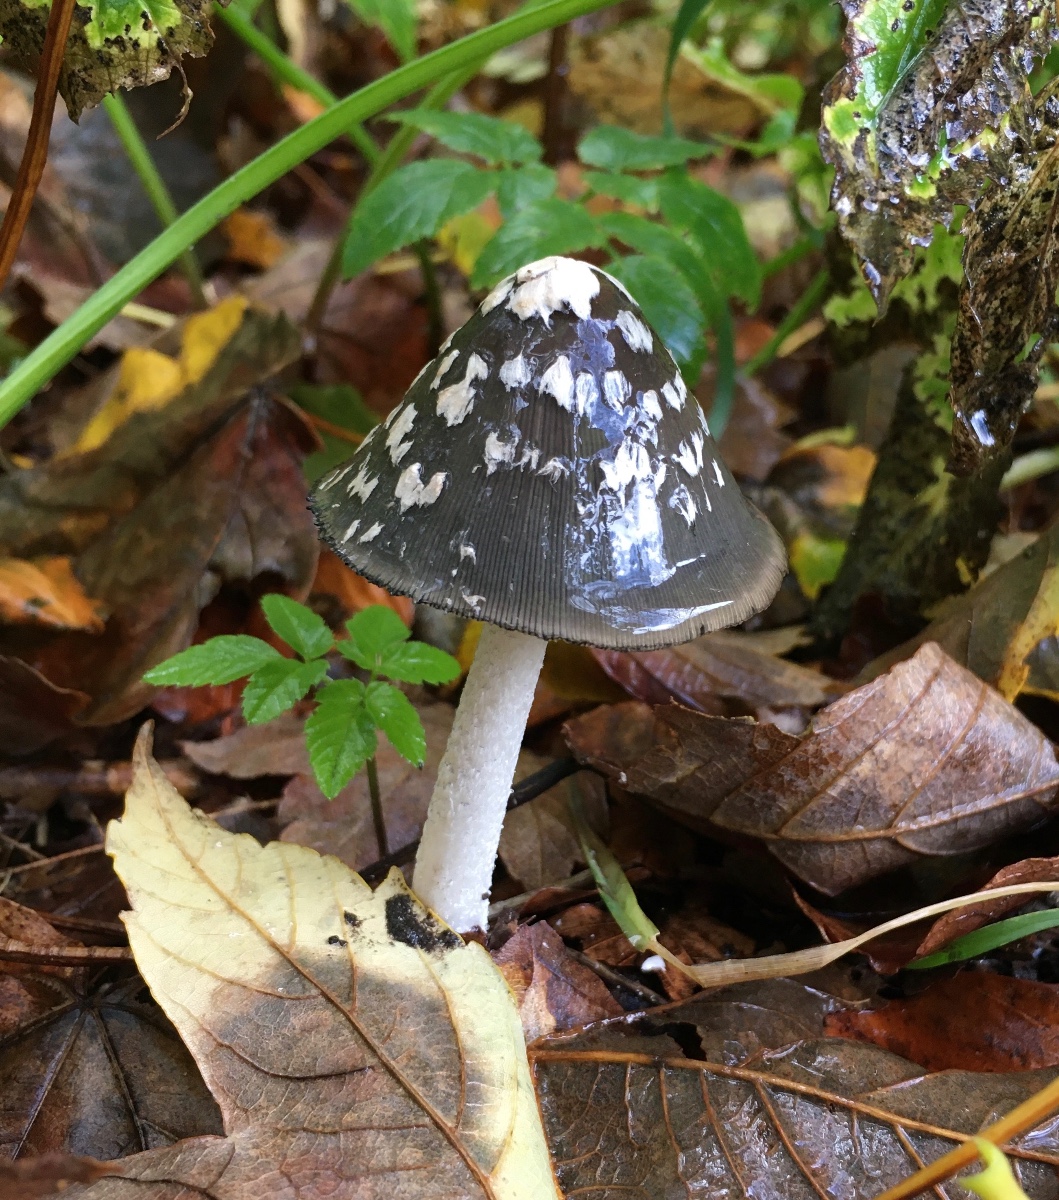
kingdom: Fungi
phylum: Basidiomycota
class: Agaricomycetes
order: Agaricales
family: Psathyrellaceae
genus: Coprinopsis
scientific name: Coprinopsis picacea
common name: skade-blækhat
